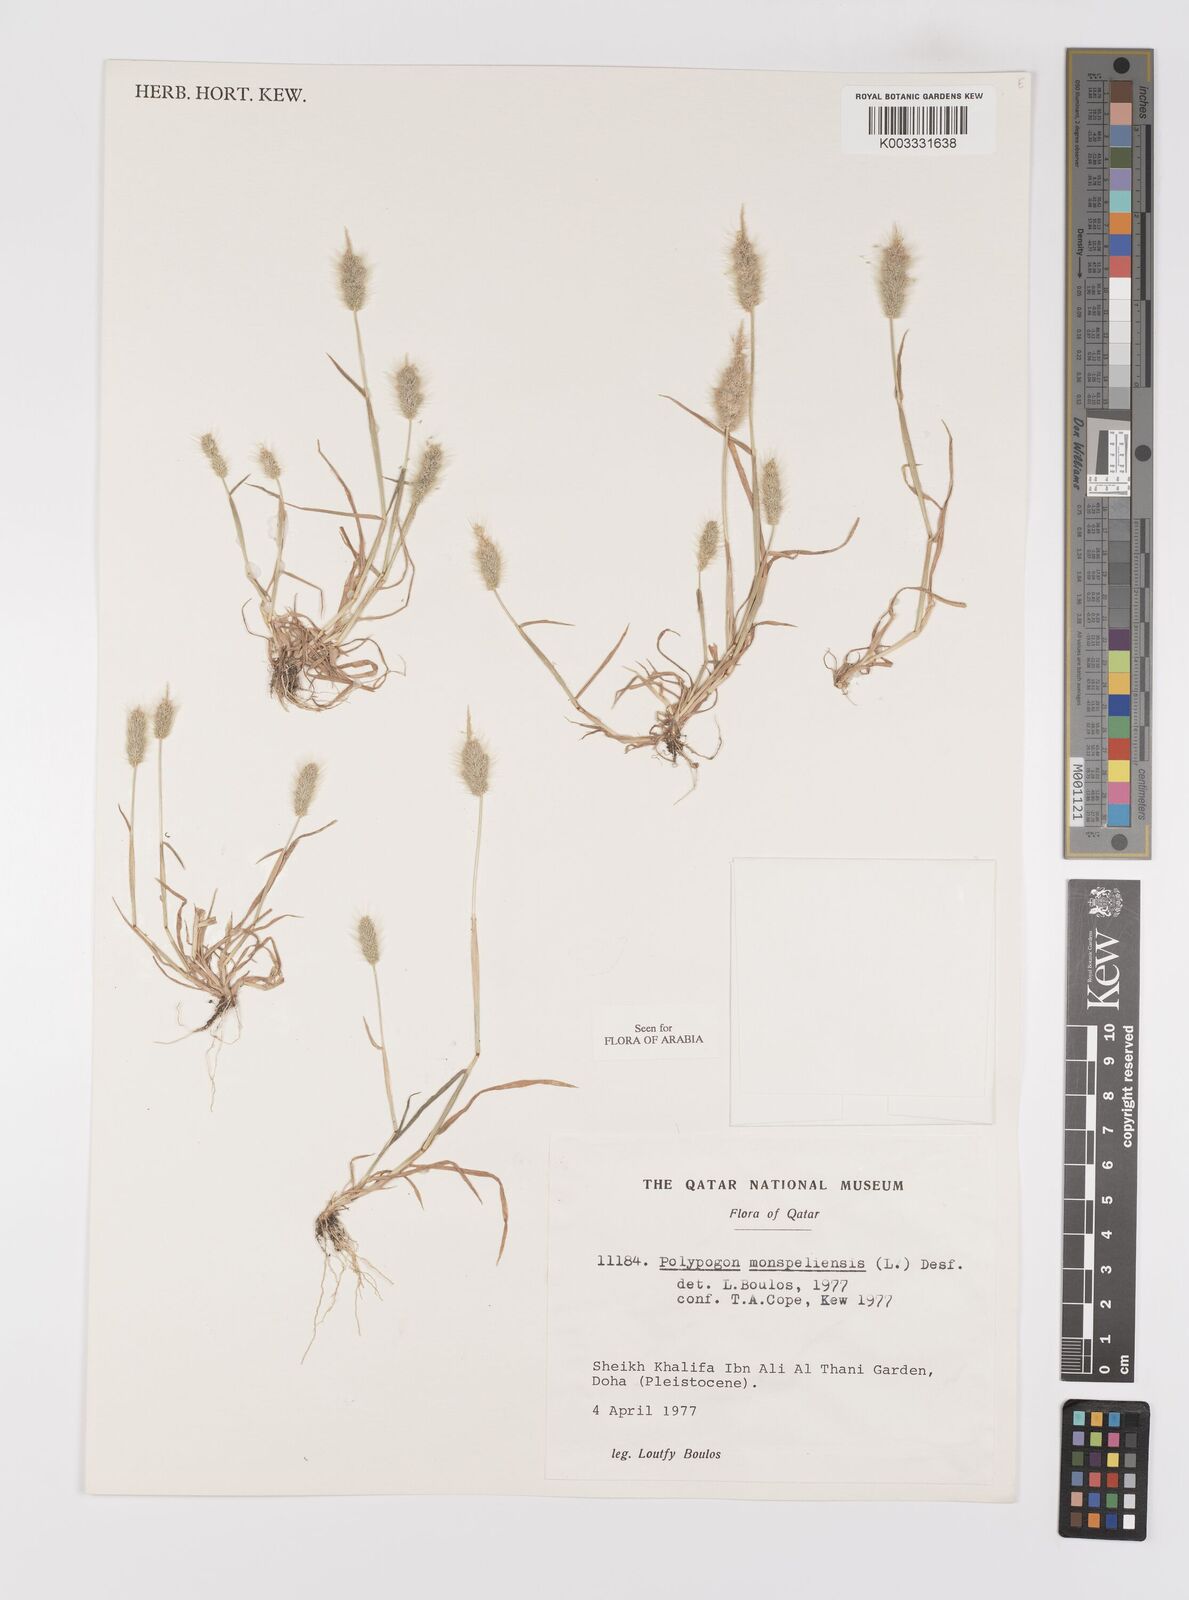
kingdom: Plantae
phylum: Tracheophyta
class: Liliopsida
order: Poales
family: Poaceae
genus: Polypogon
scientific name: Polypogon monspeliensis
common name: Annual rabbitsfoot grass
